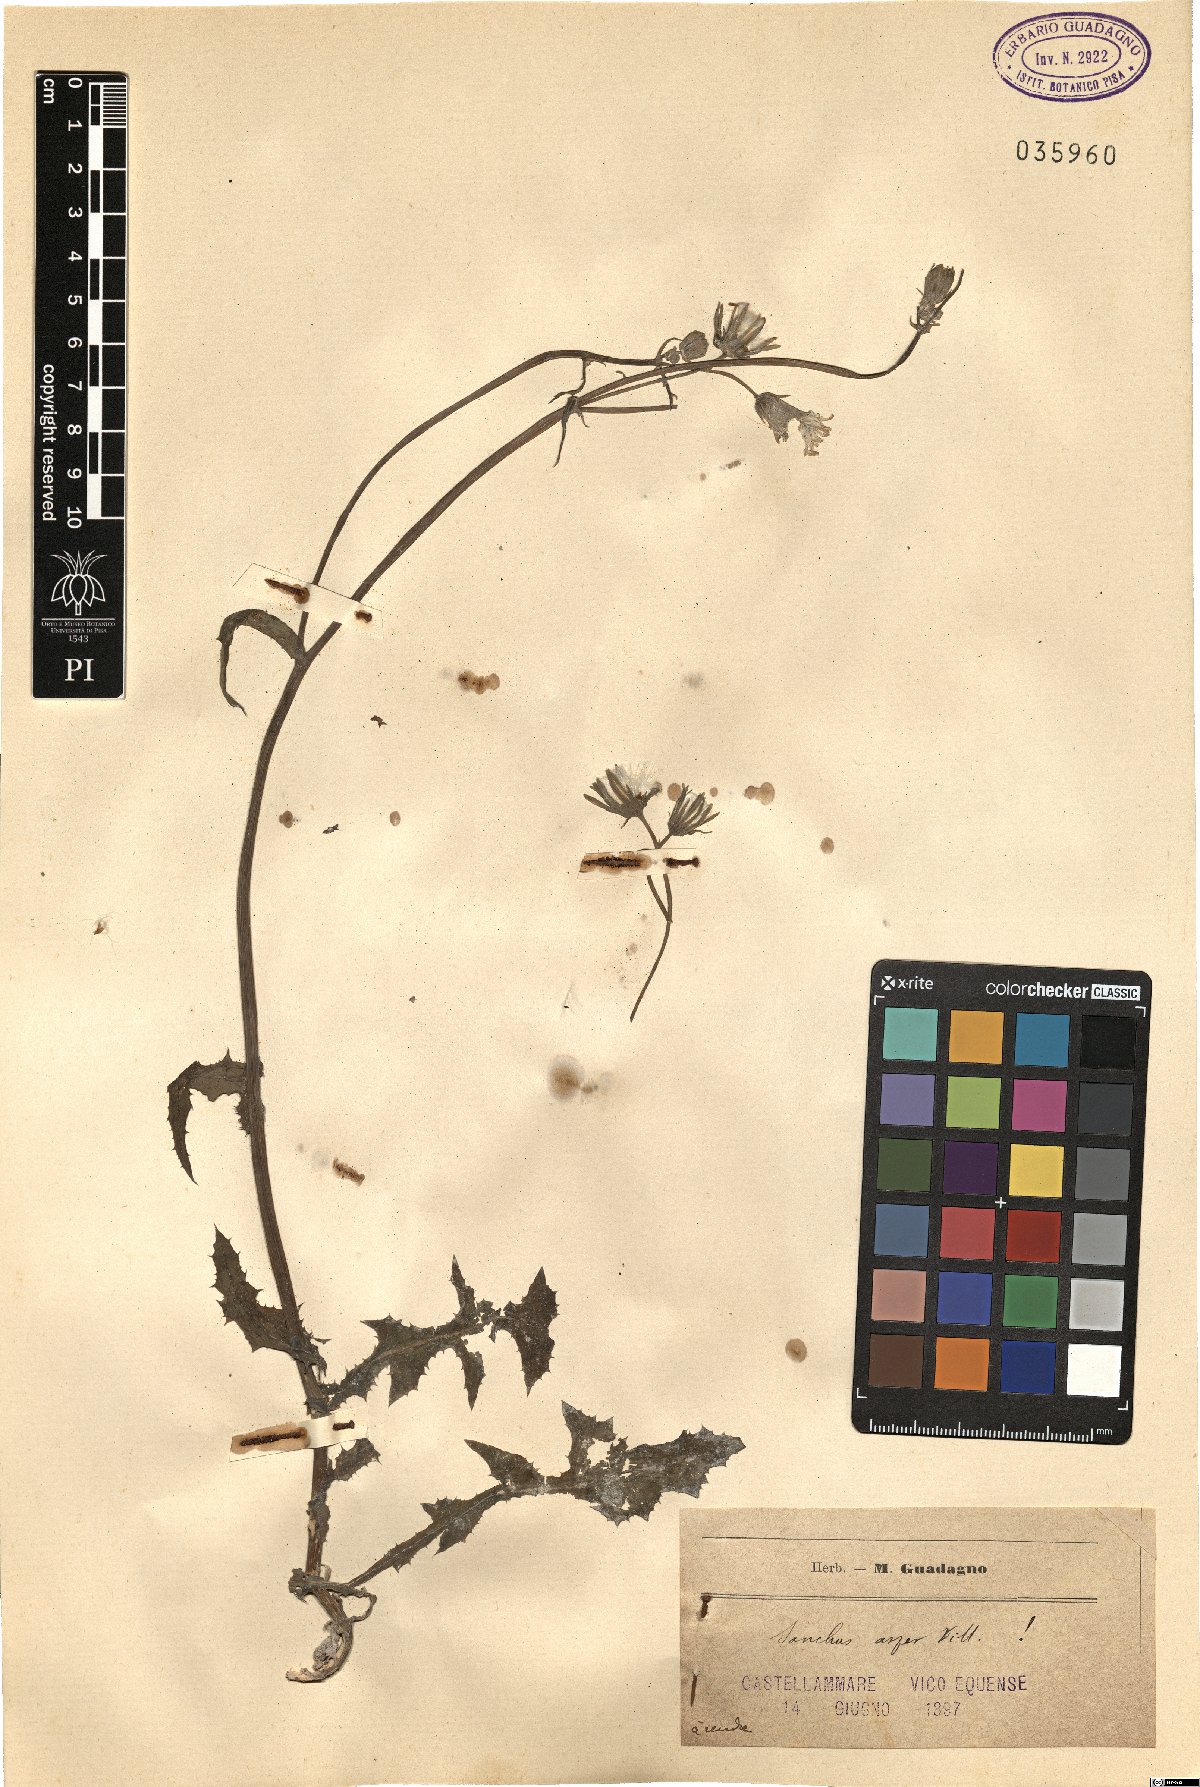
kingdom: Plantae
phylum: Tracheophyta
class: Magnoliopsida
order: Asterales
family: Asteraceae
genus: Sonchus
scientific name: Sonchus asper
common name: Prickly sow-thistle
